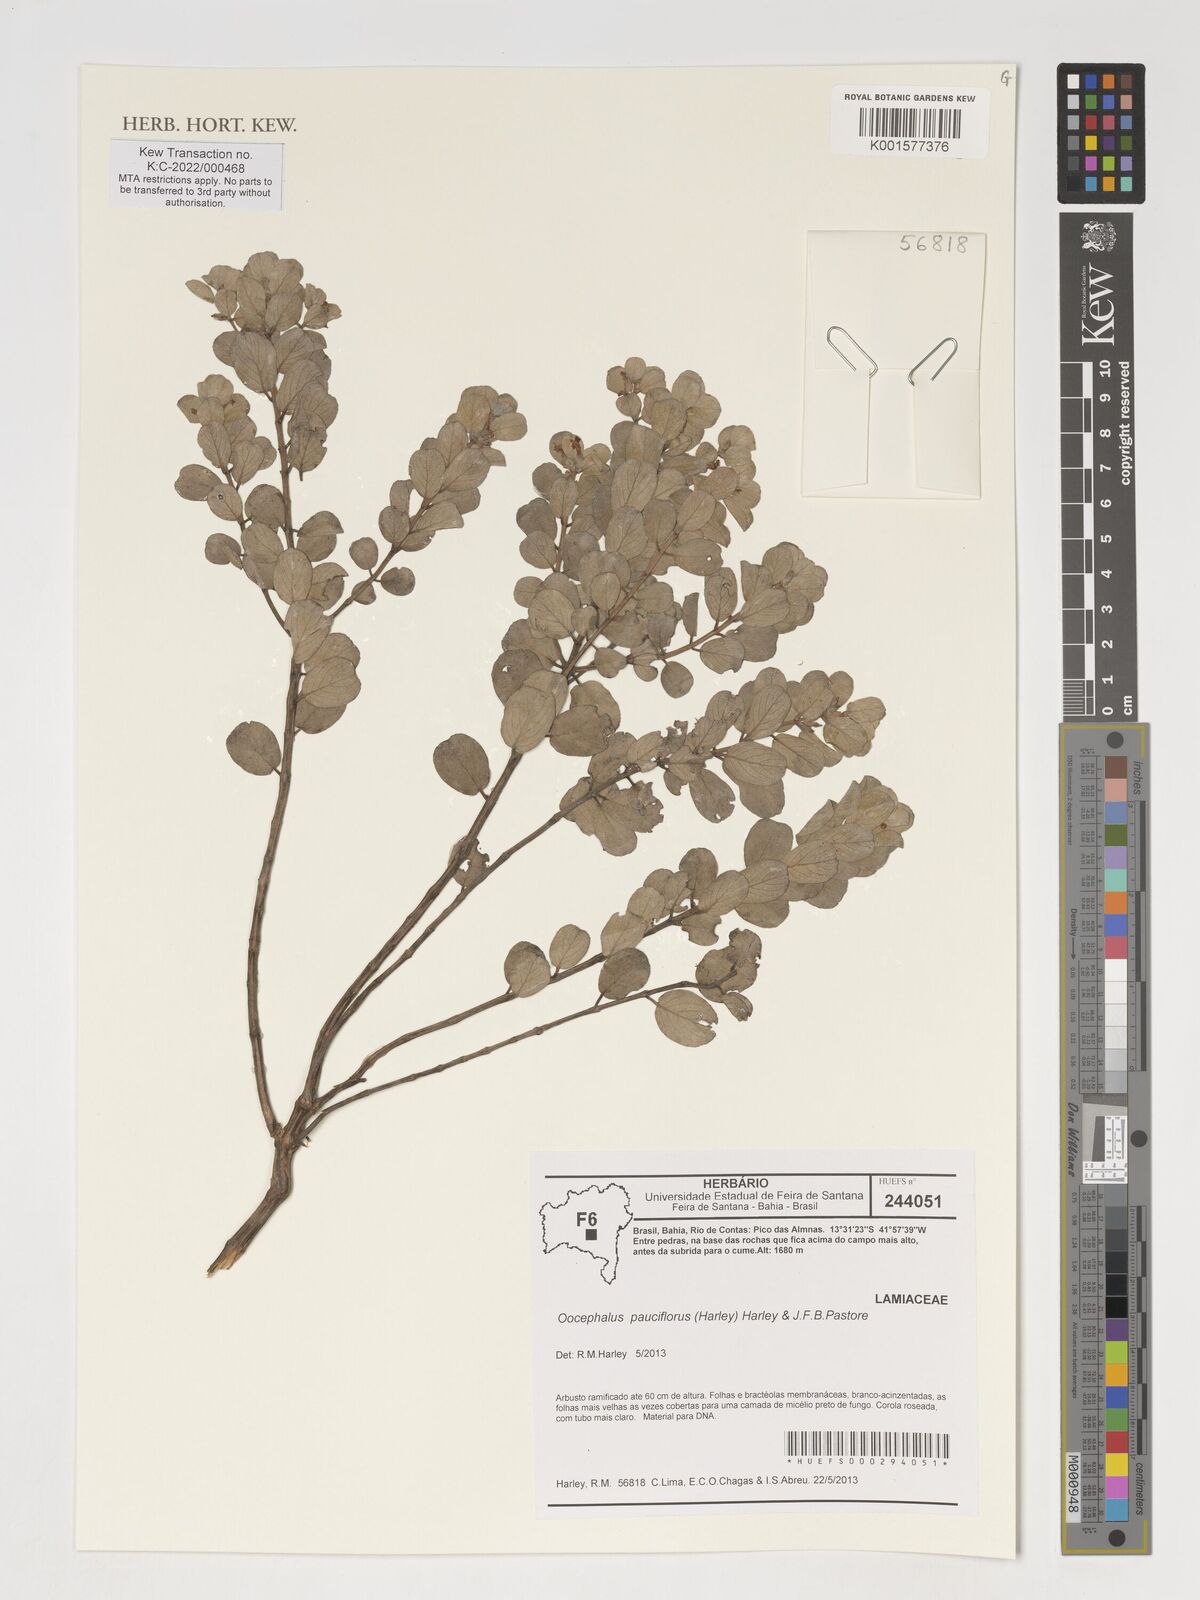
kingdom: Plantae
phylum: Tracheophyta
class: Magnoliopsida
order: Lamiales
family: Lamiaceae
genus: Oocephalus
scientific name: Oocephalus pauciflorus
